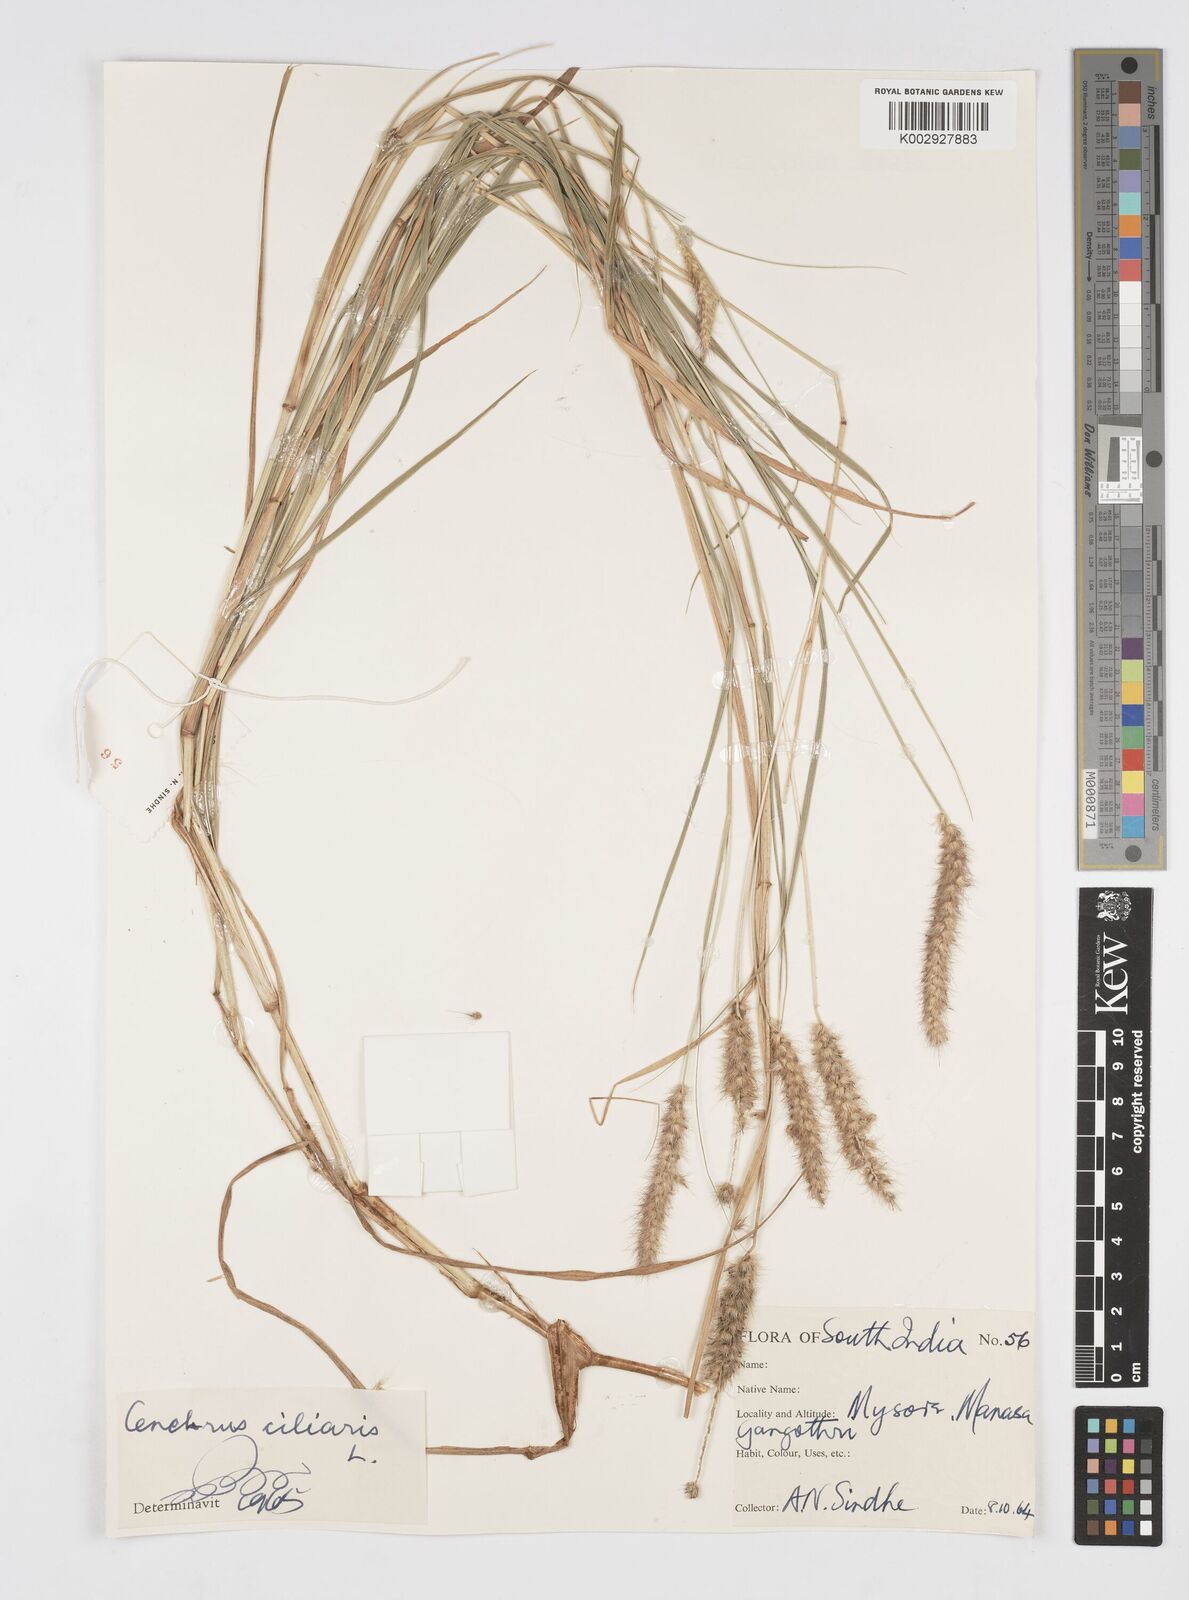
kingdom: Plantae
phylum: Tracheophyta
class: Liliopsida
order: Poales
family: Poaceae
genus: Cenchrus
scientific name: Cenchrus ciliaris
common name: Buffelgrass
